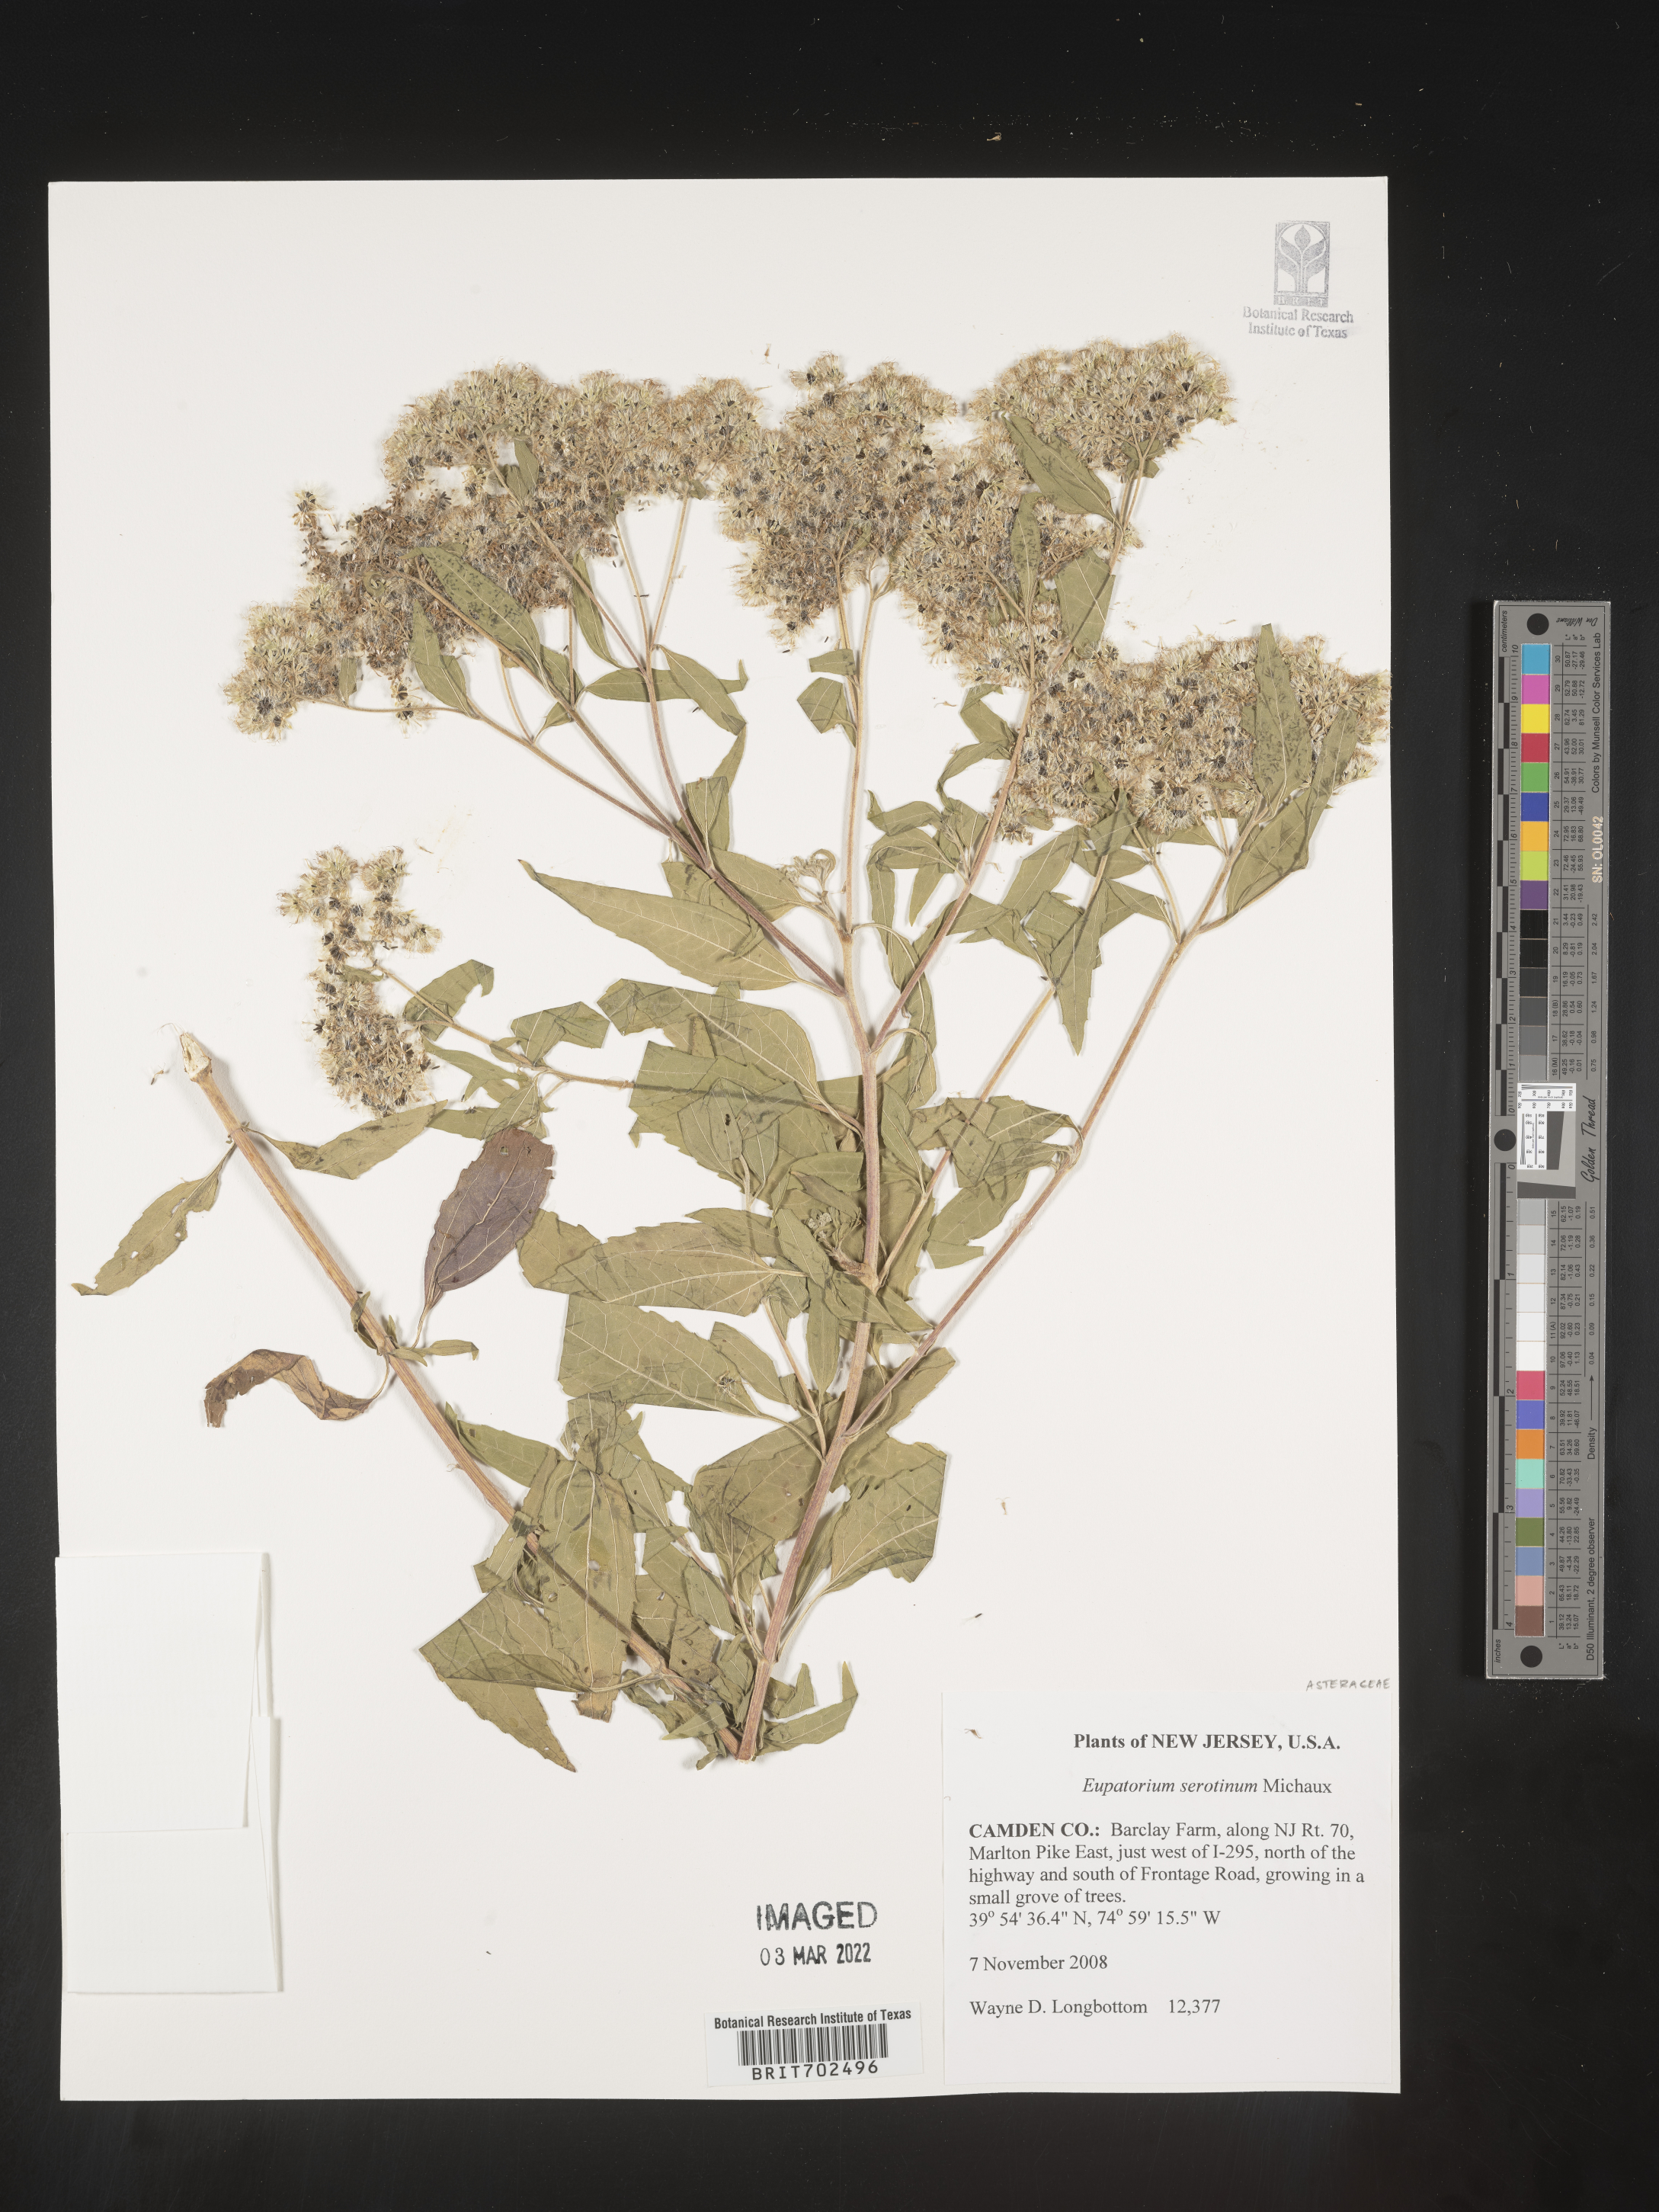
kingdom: Plantae
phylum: Tracheophyta
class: Magnoliopsida
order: Asterales
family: Asteraceae
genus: Eupatorium
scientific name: Eupatorium serotinum
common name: Late boneset
